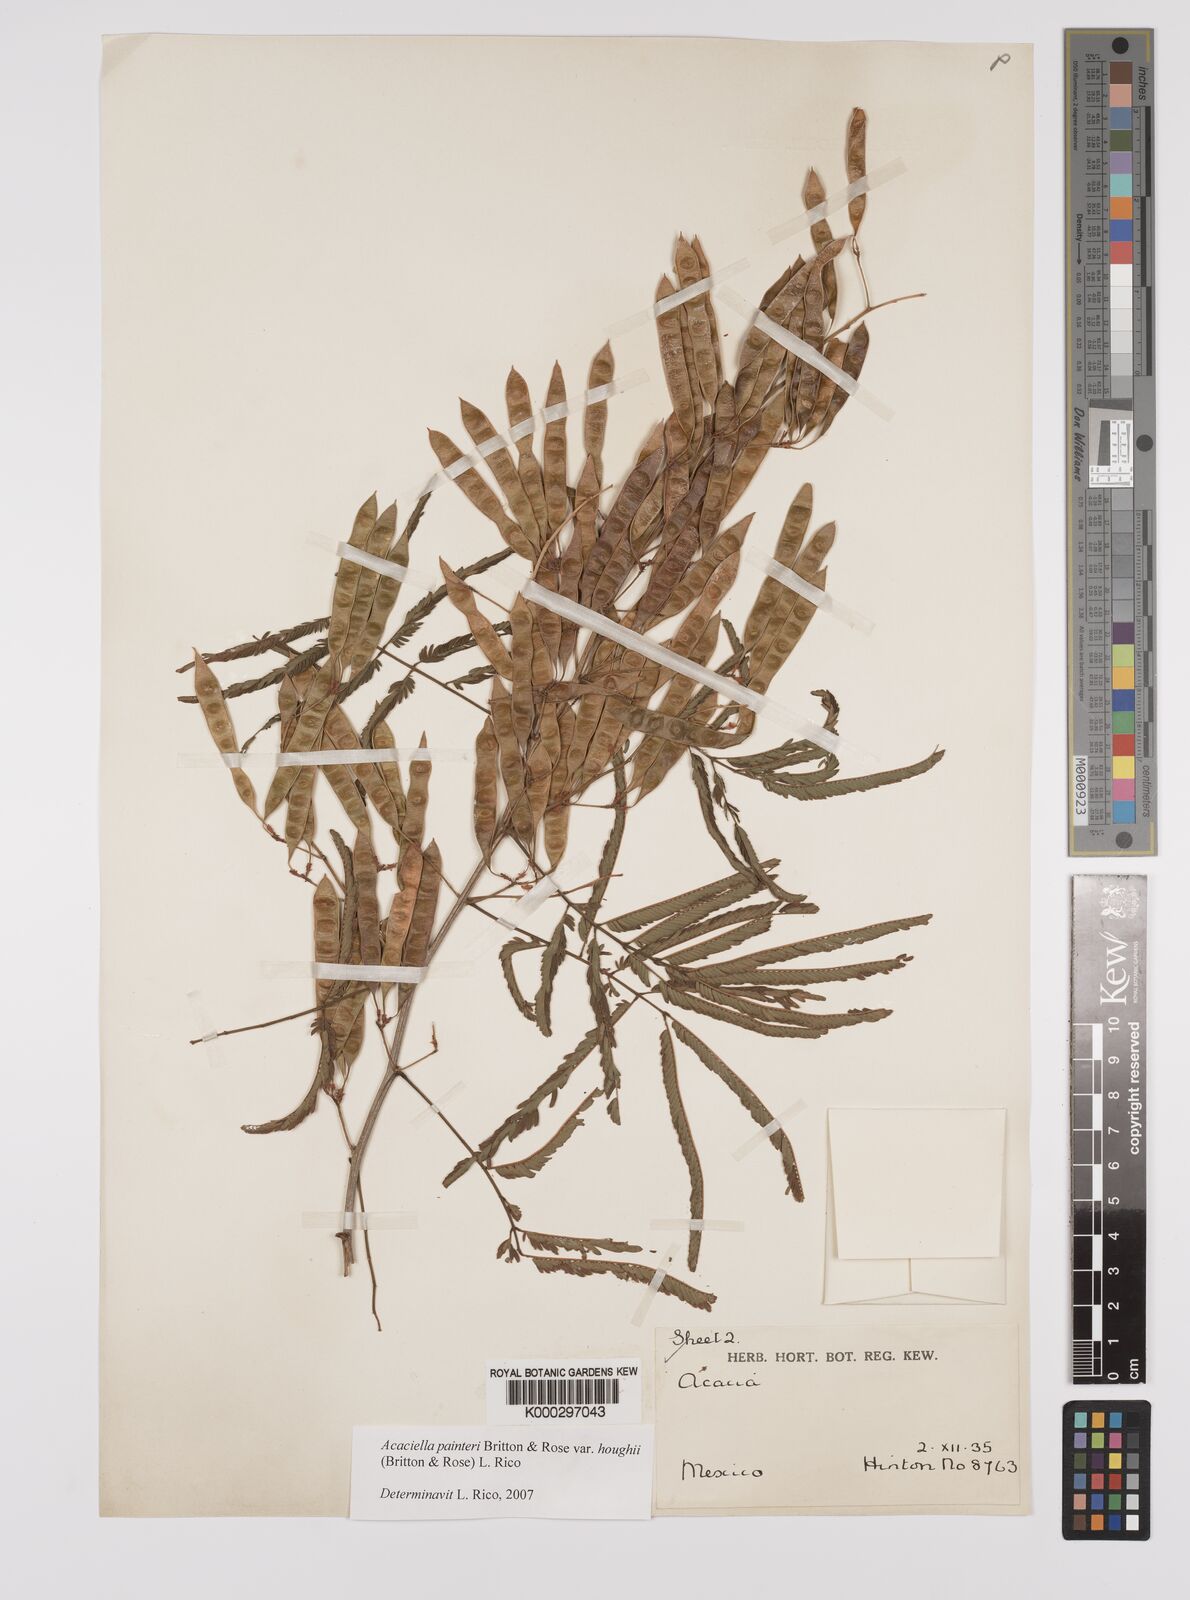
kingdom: Plantae
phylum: Tracheophyta
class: Magnoliopsida
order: Fabales
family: Fabaceae
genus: Acacia
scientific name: Acacia
